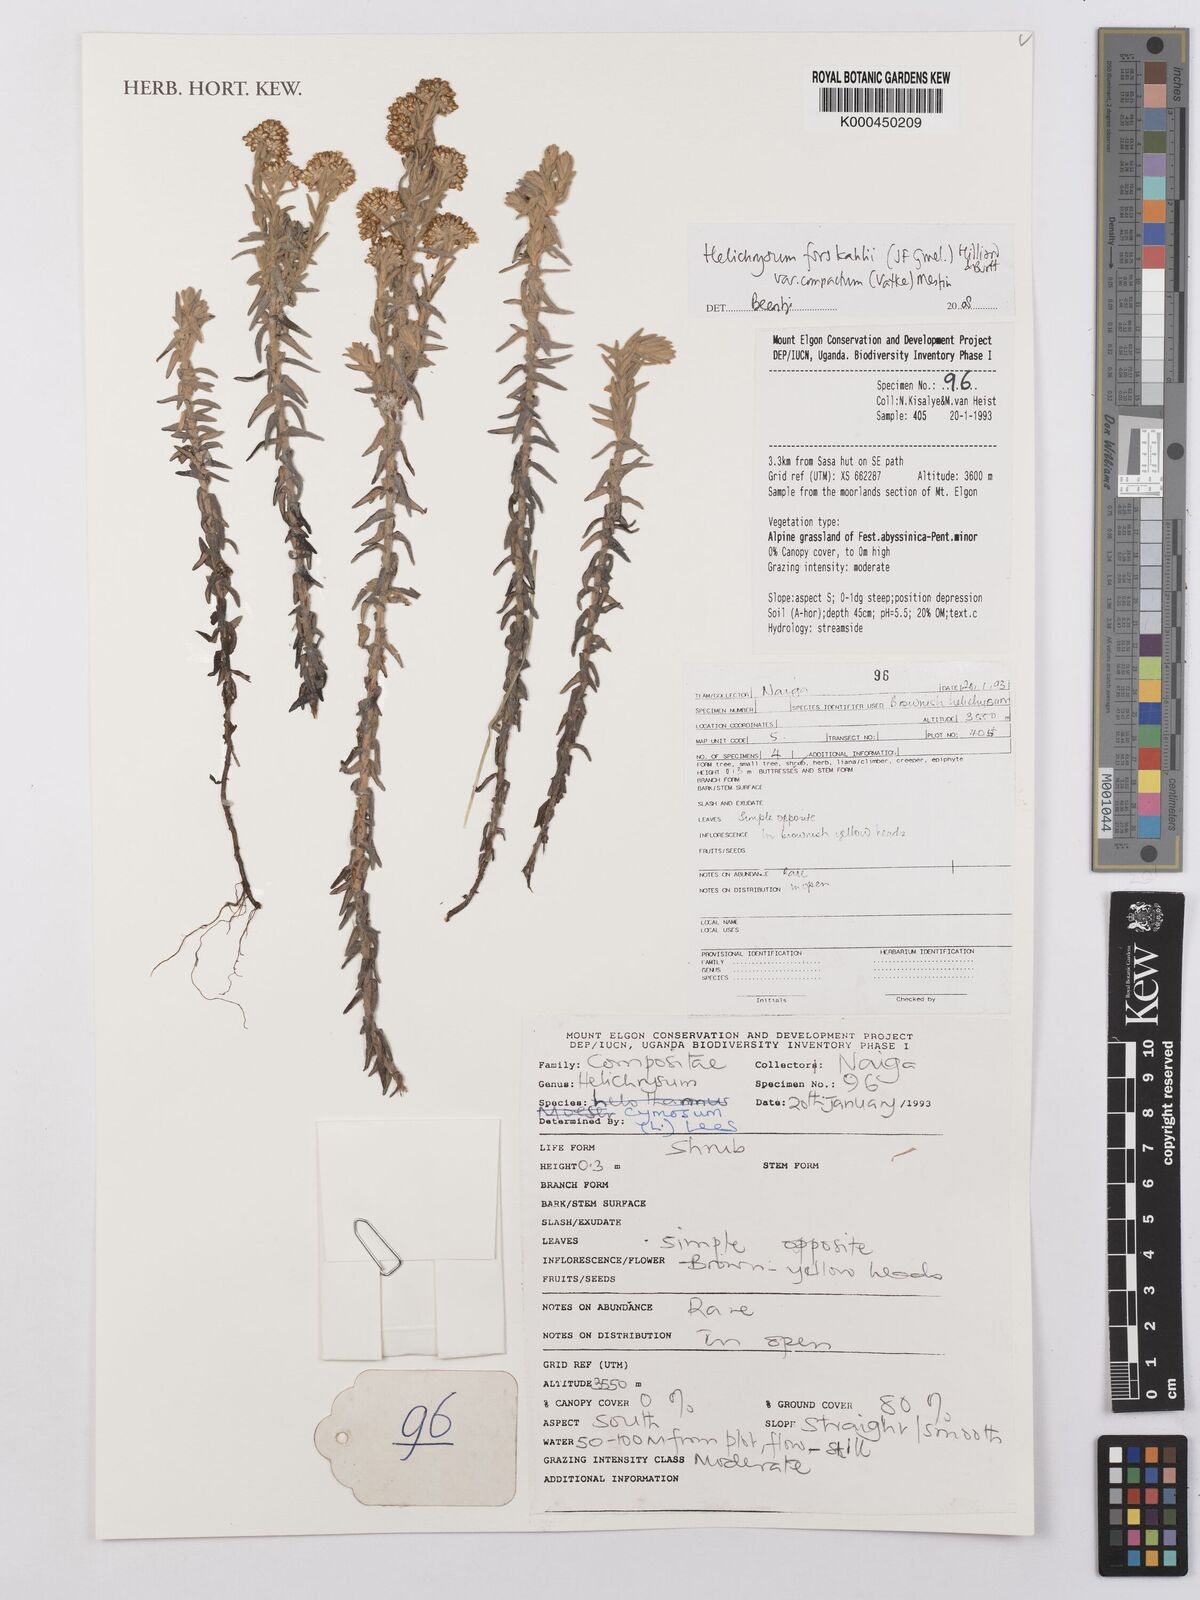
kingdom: Plantae
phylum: Tracheophyta
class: Magnoliopsida
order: Asterales
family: Asteraceae
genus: Helichrysum
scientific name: Helichrysum forskahlii
